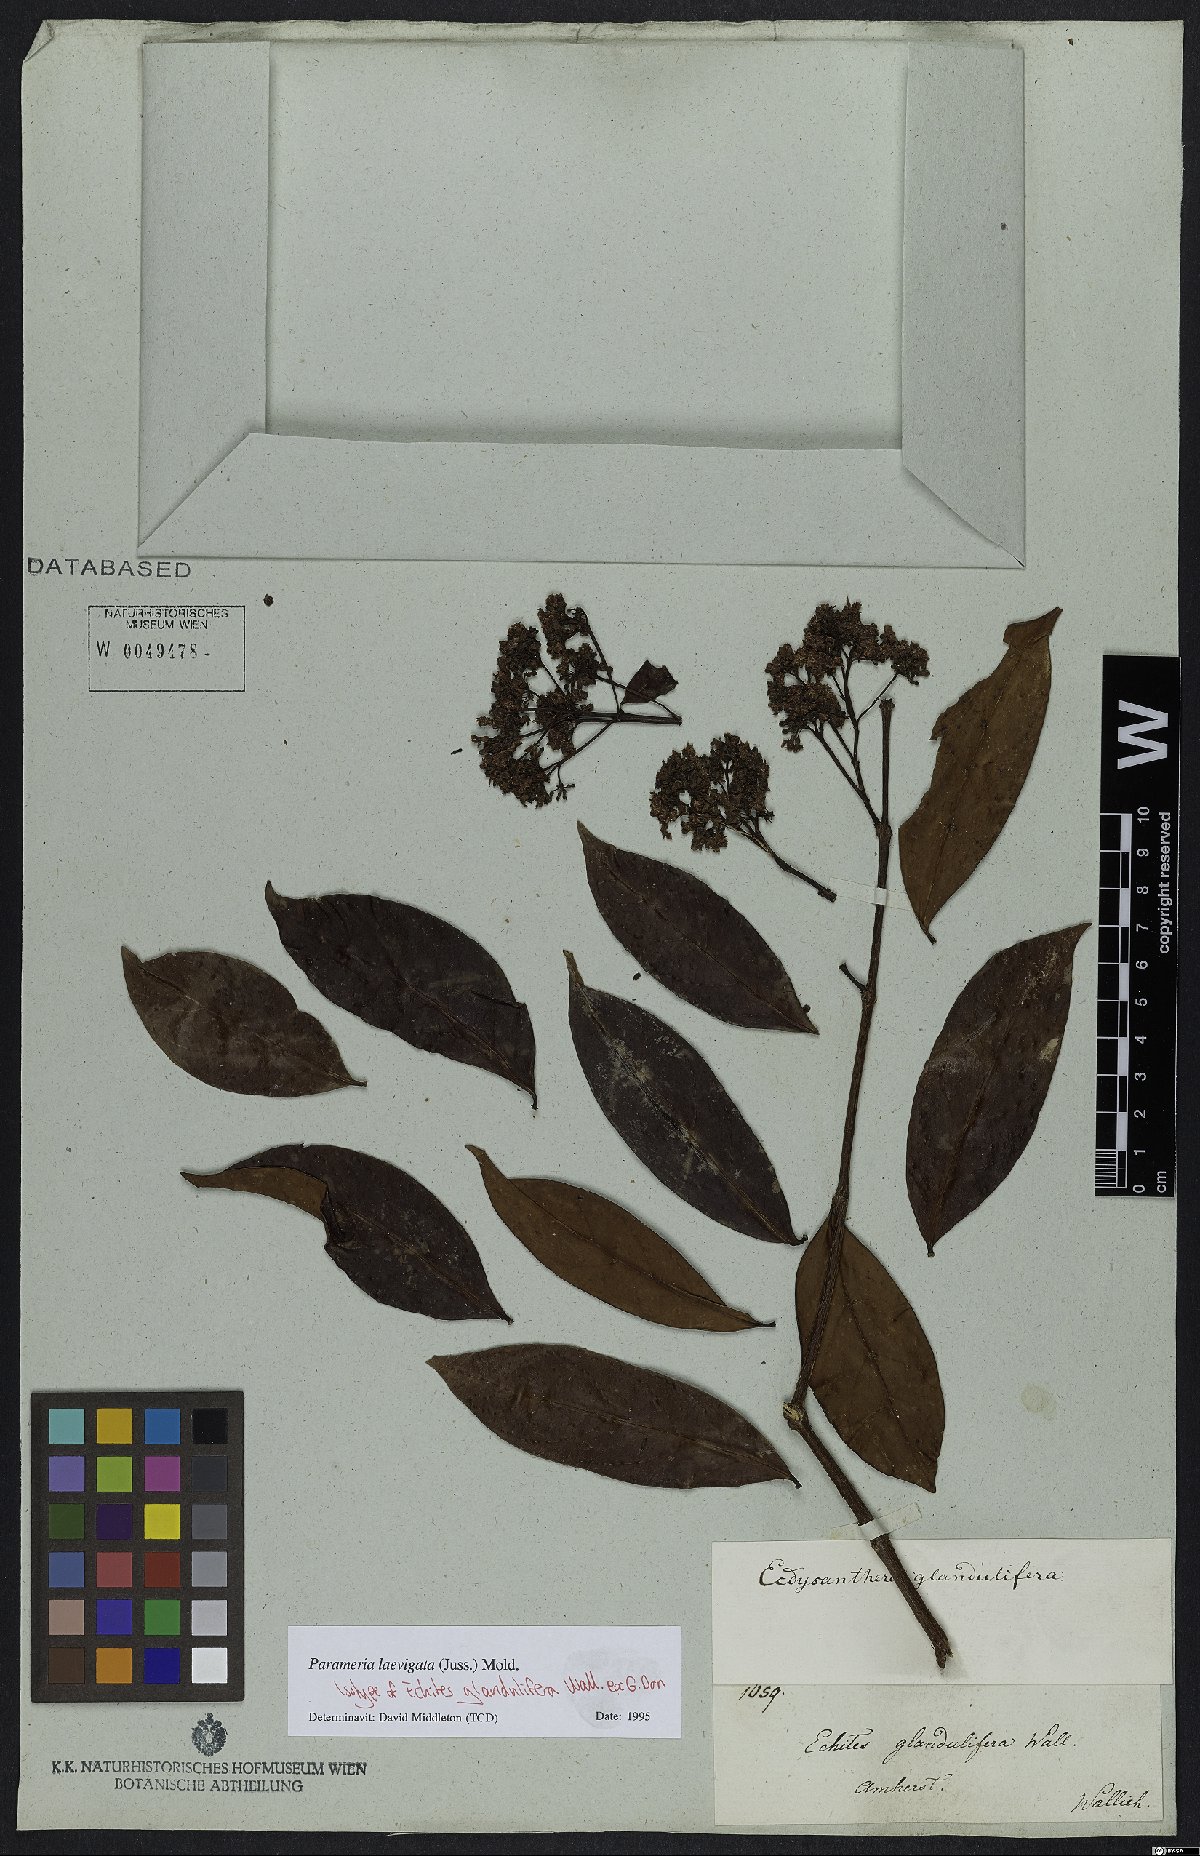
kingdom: Plantae
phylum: Tracheophyta
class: Magnoliopsida
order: Gentianales
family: Apocynaceae
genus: Urceola
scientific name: Urceola laevigata
